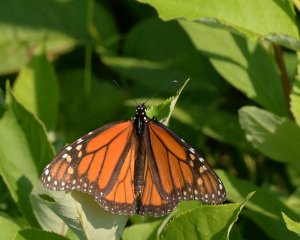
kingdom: Animalia
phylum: Arthropoda
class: Insecta
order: Lepidoptera
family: Nymphalidae
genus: Danaus
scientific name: Danaus plexippus
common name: Monarch
